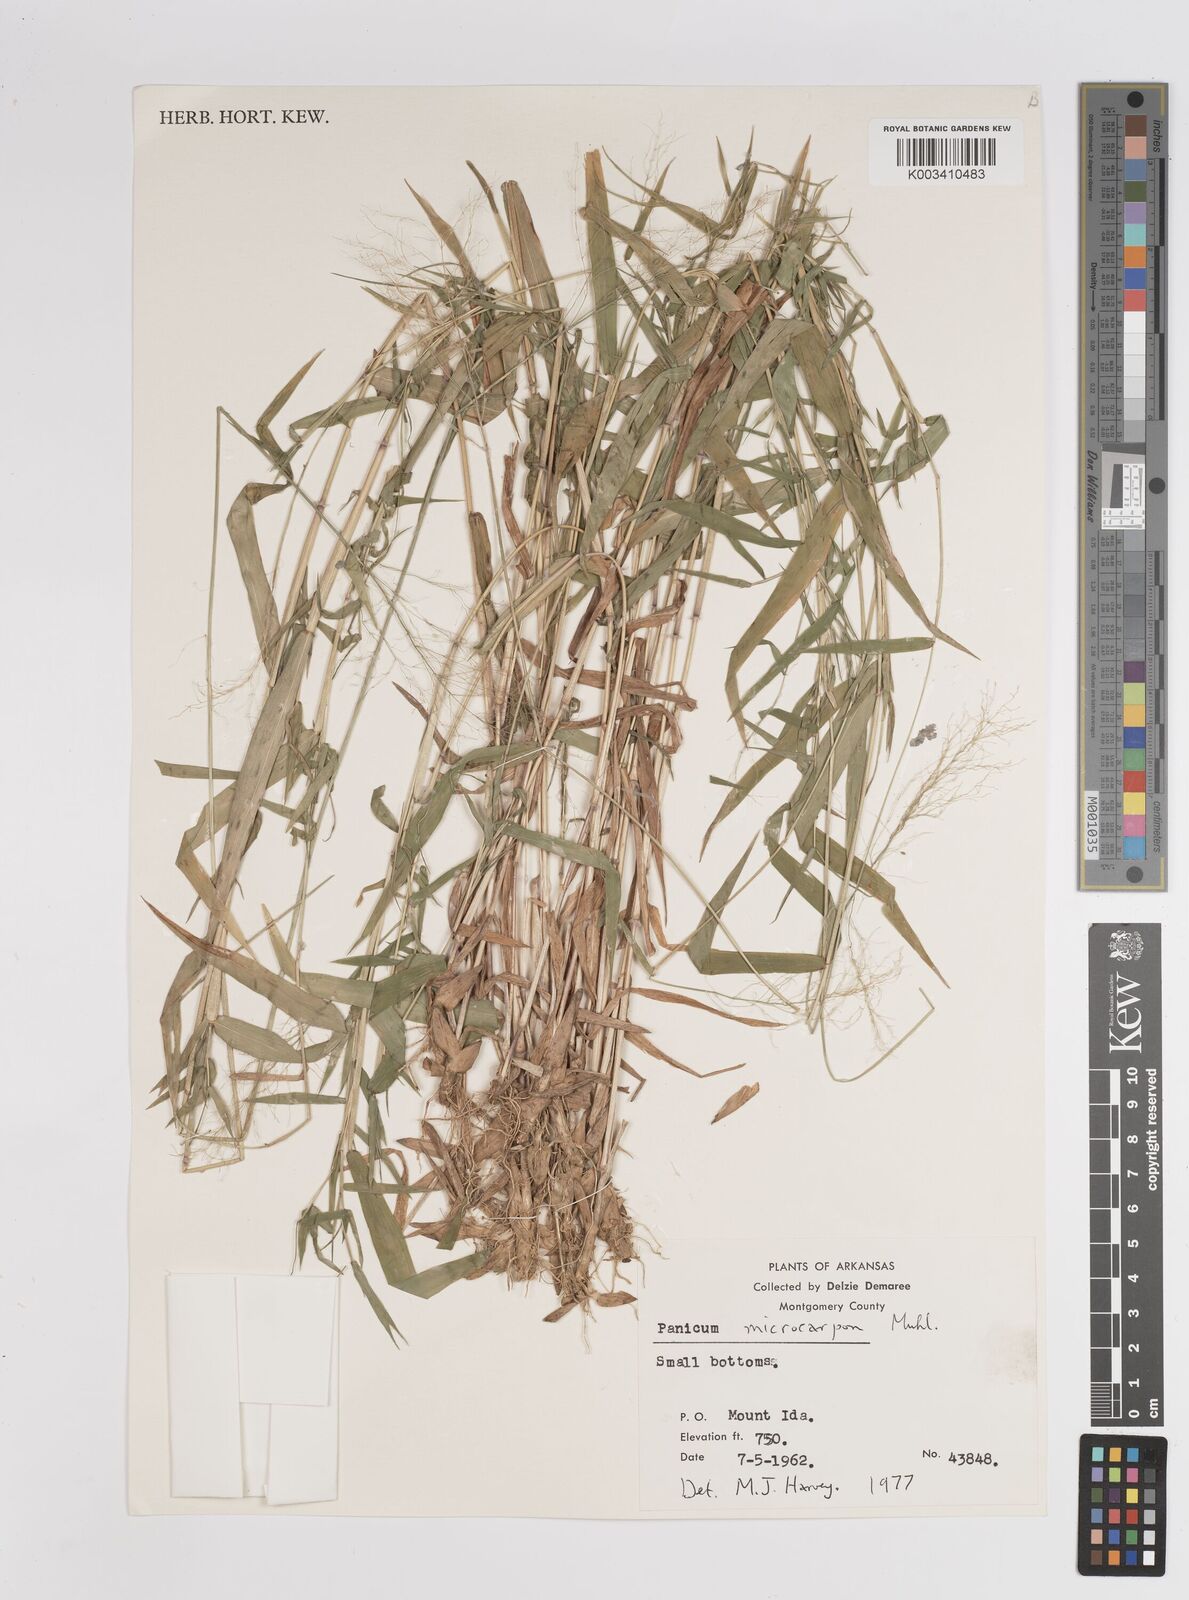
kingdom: Plantae
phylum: Tracheophyta
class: Liliopsida
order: Poales
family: Poaceae
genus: Dichanthelium
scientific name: Dichanthelium polyanthes
